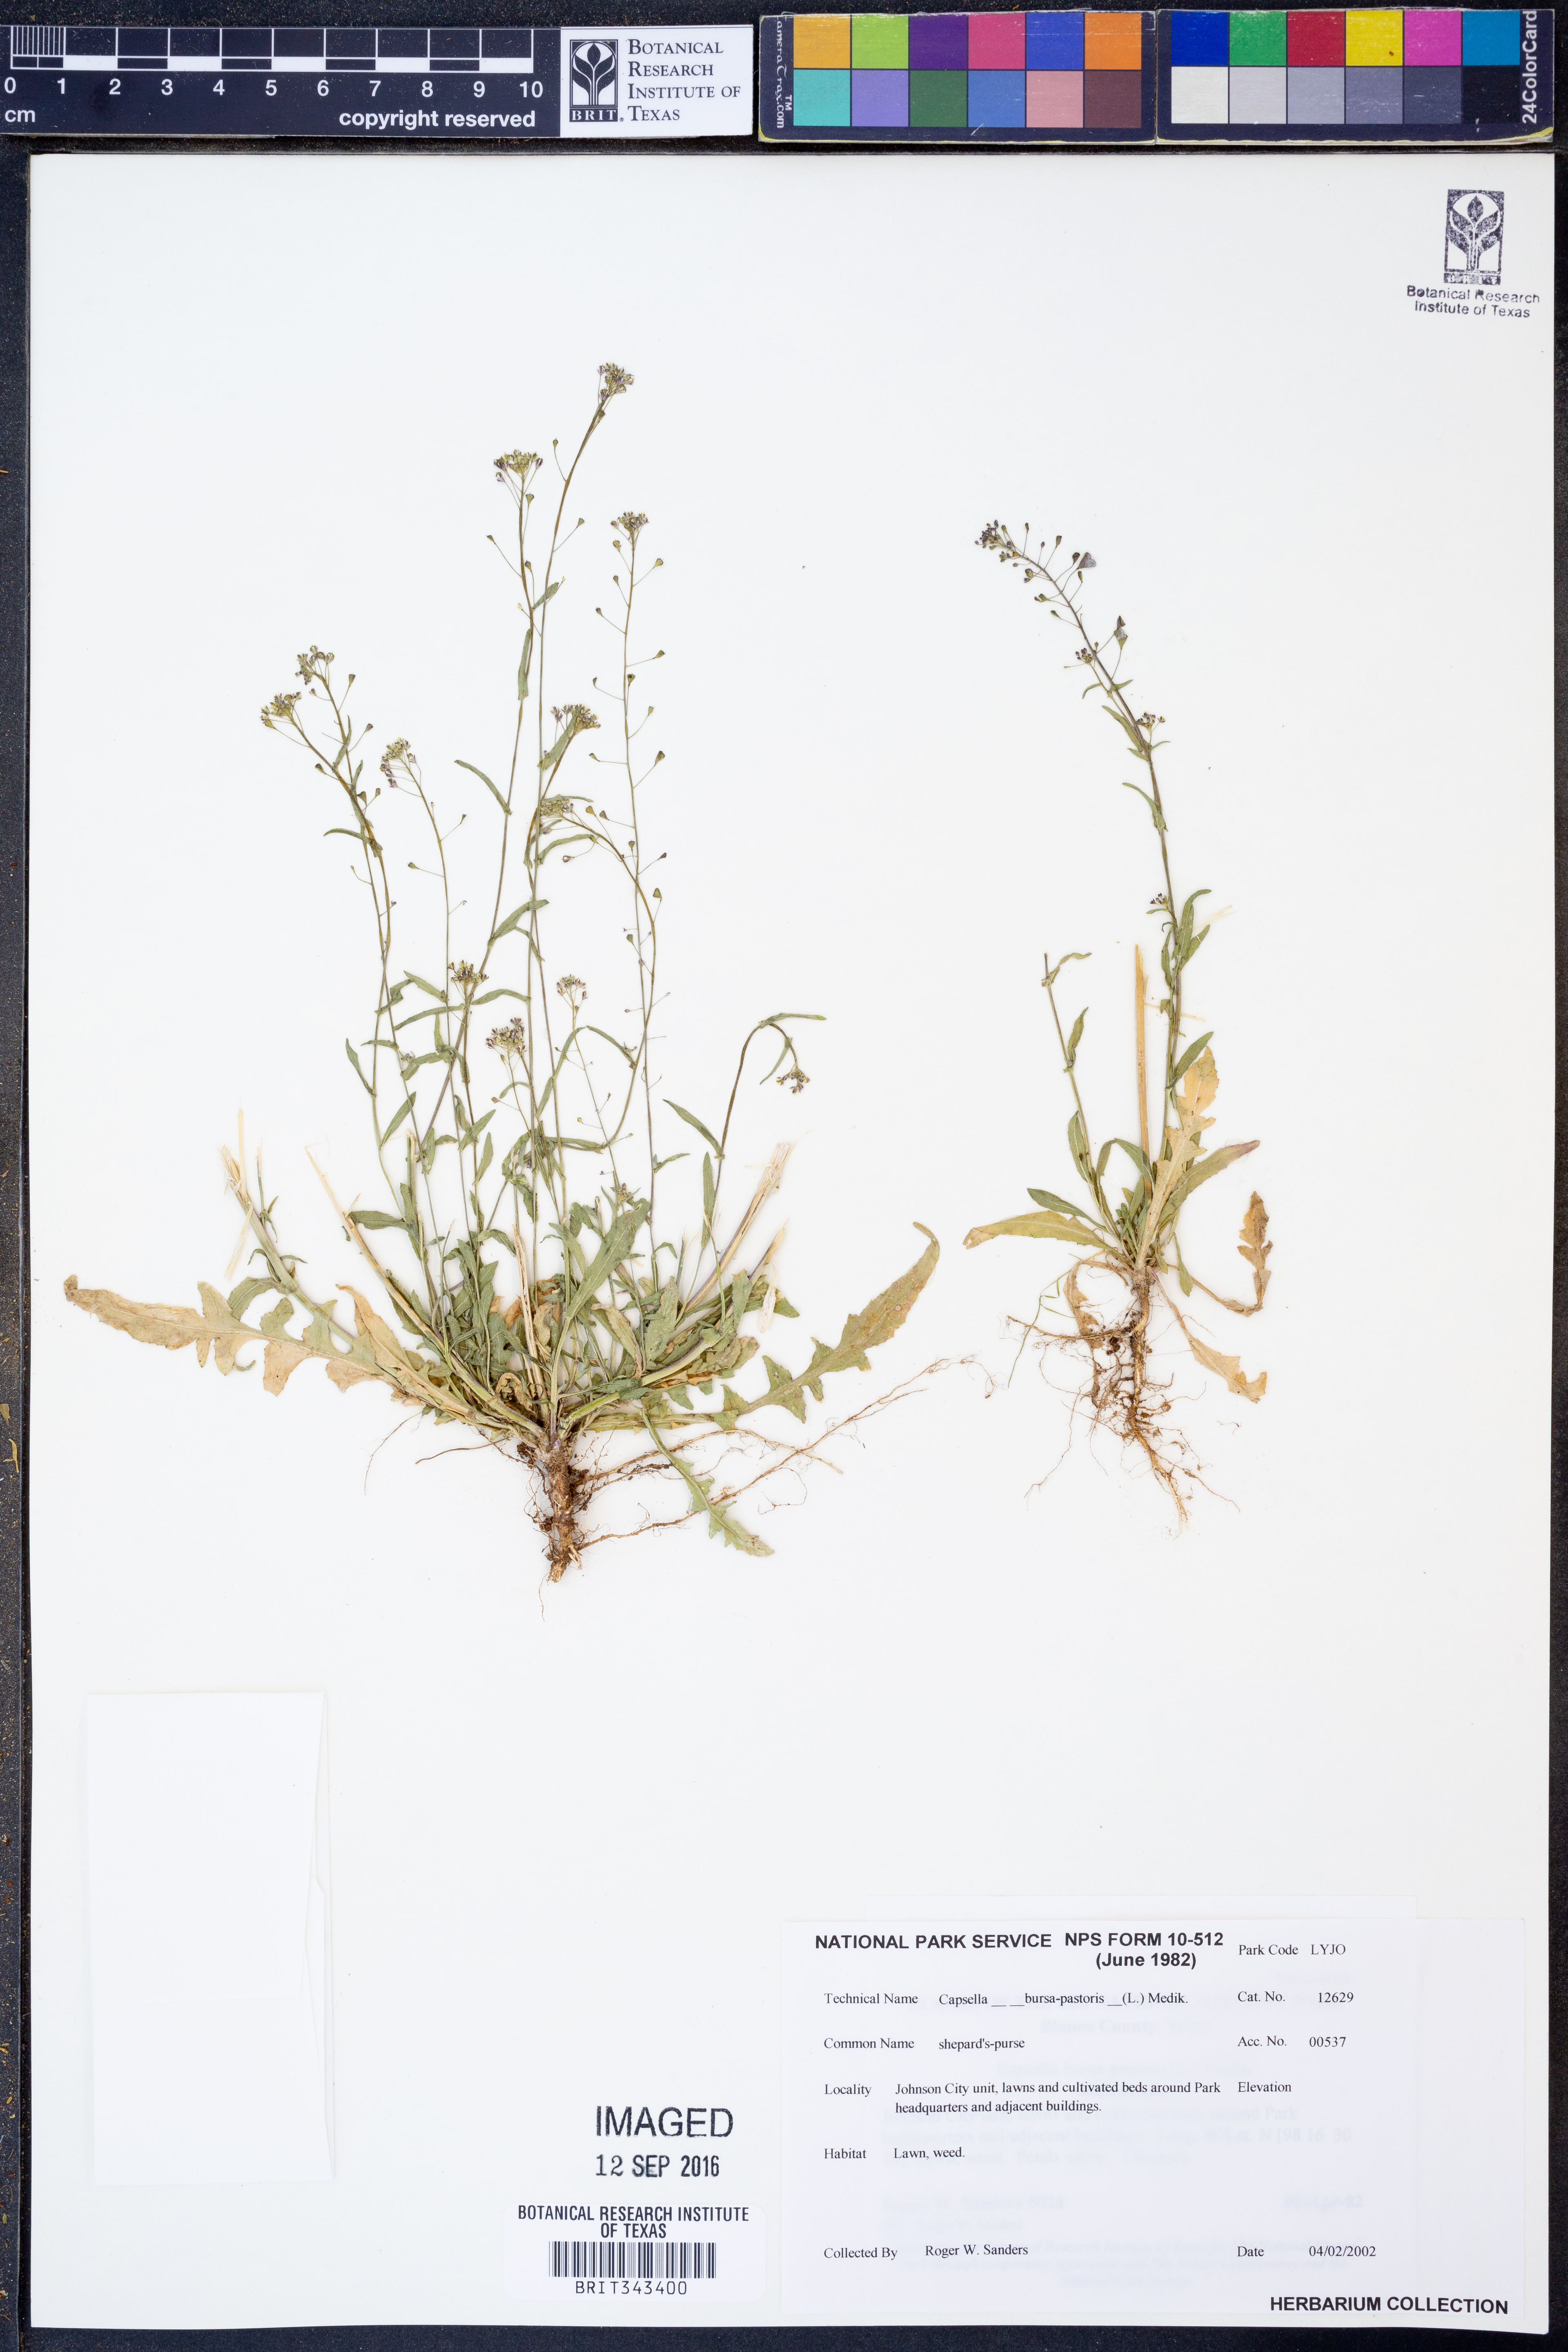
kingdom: Plantae
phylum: Tracheophyta
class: Magnoliopsida
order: Brassicales
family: Brassicaceae
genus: Capsella
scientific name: Capsella bursa-pastoris
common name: Shepherd's purse
